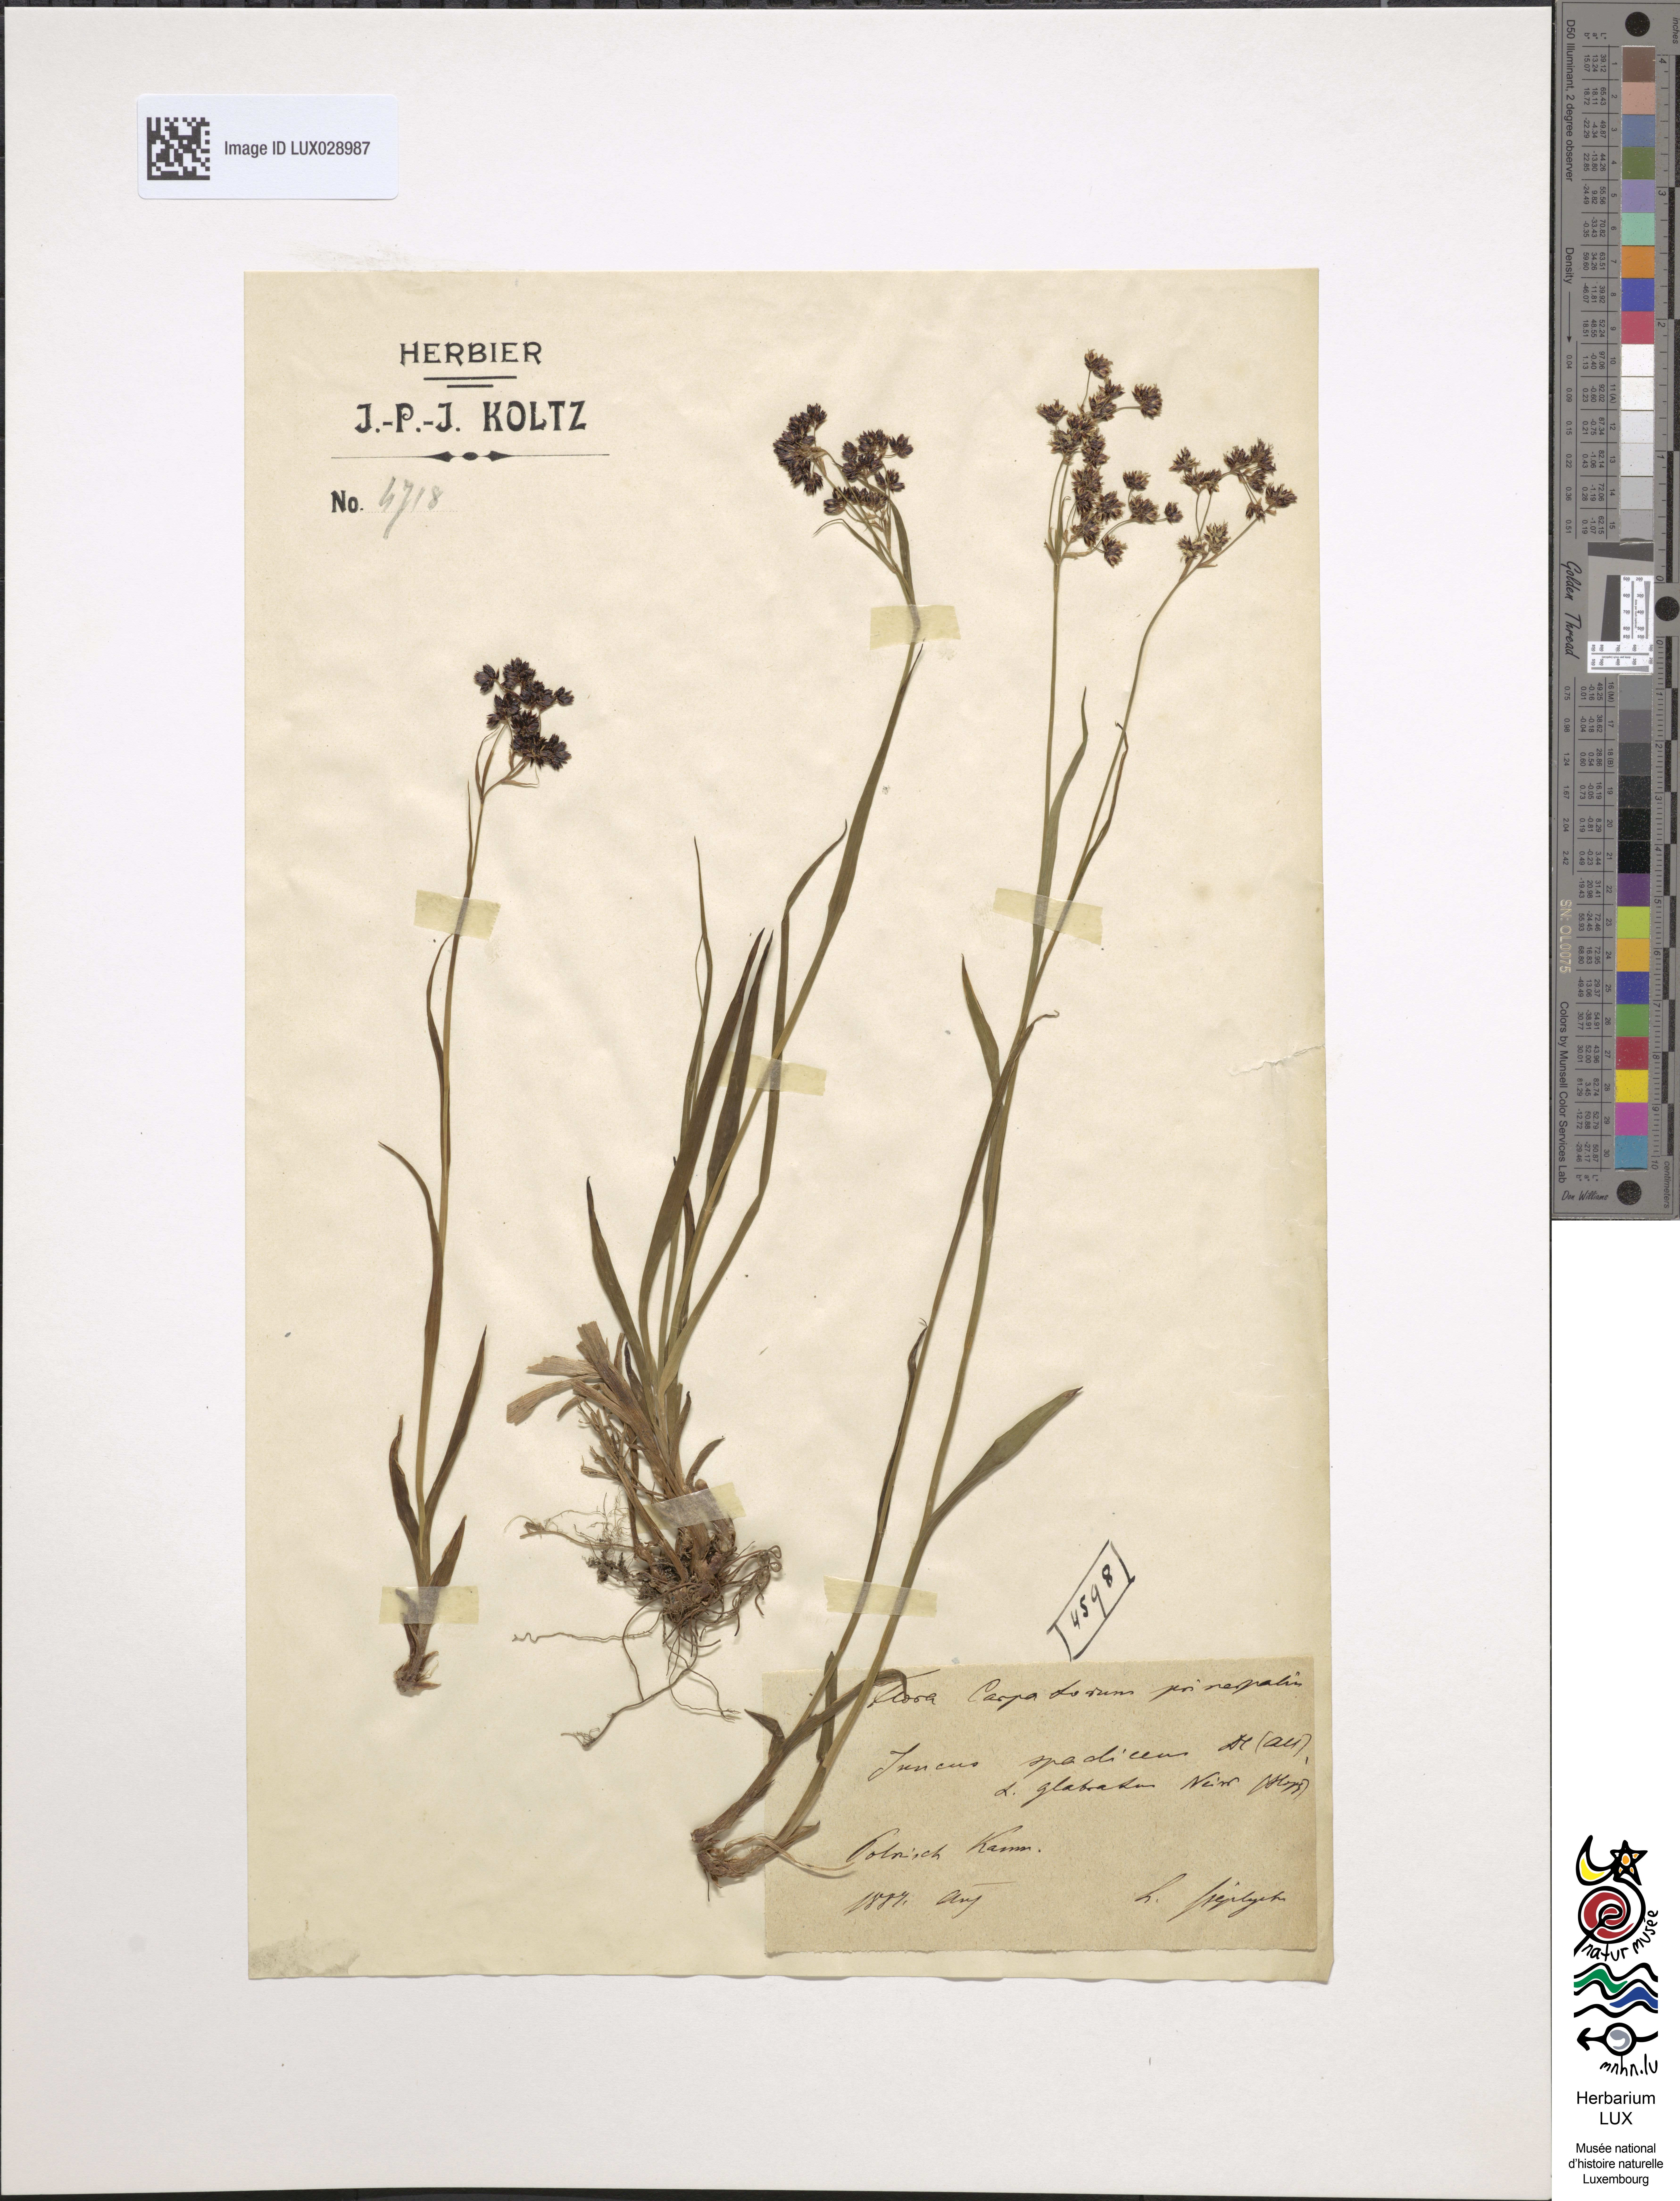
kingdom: Plantae
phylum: Tracheophyta
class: Liliopsida
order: Poales
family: Juncaceae
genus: Luzula
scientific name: Luzula glabrata
